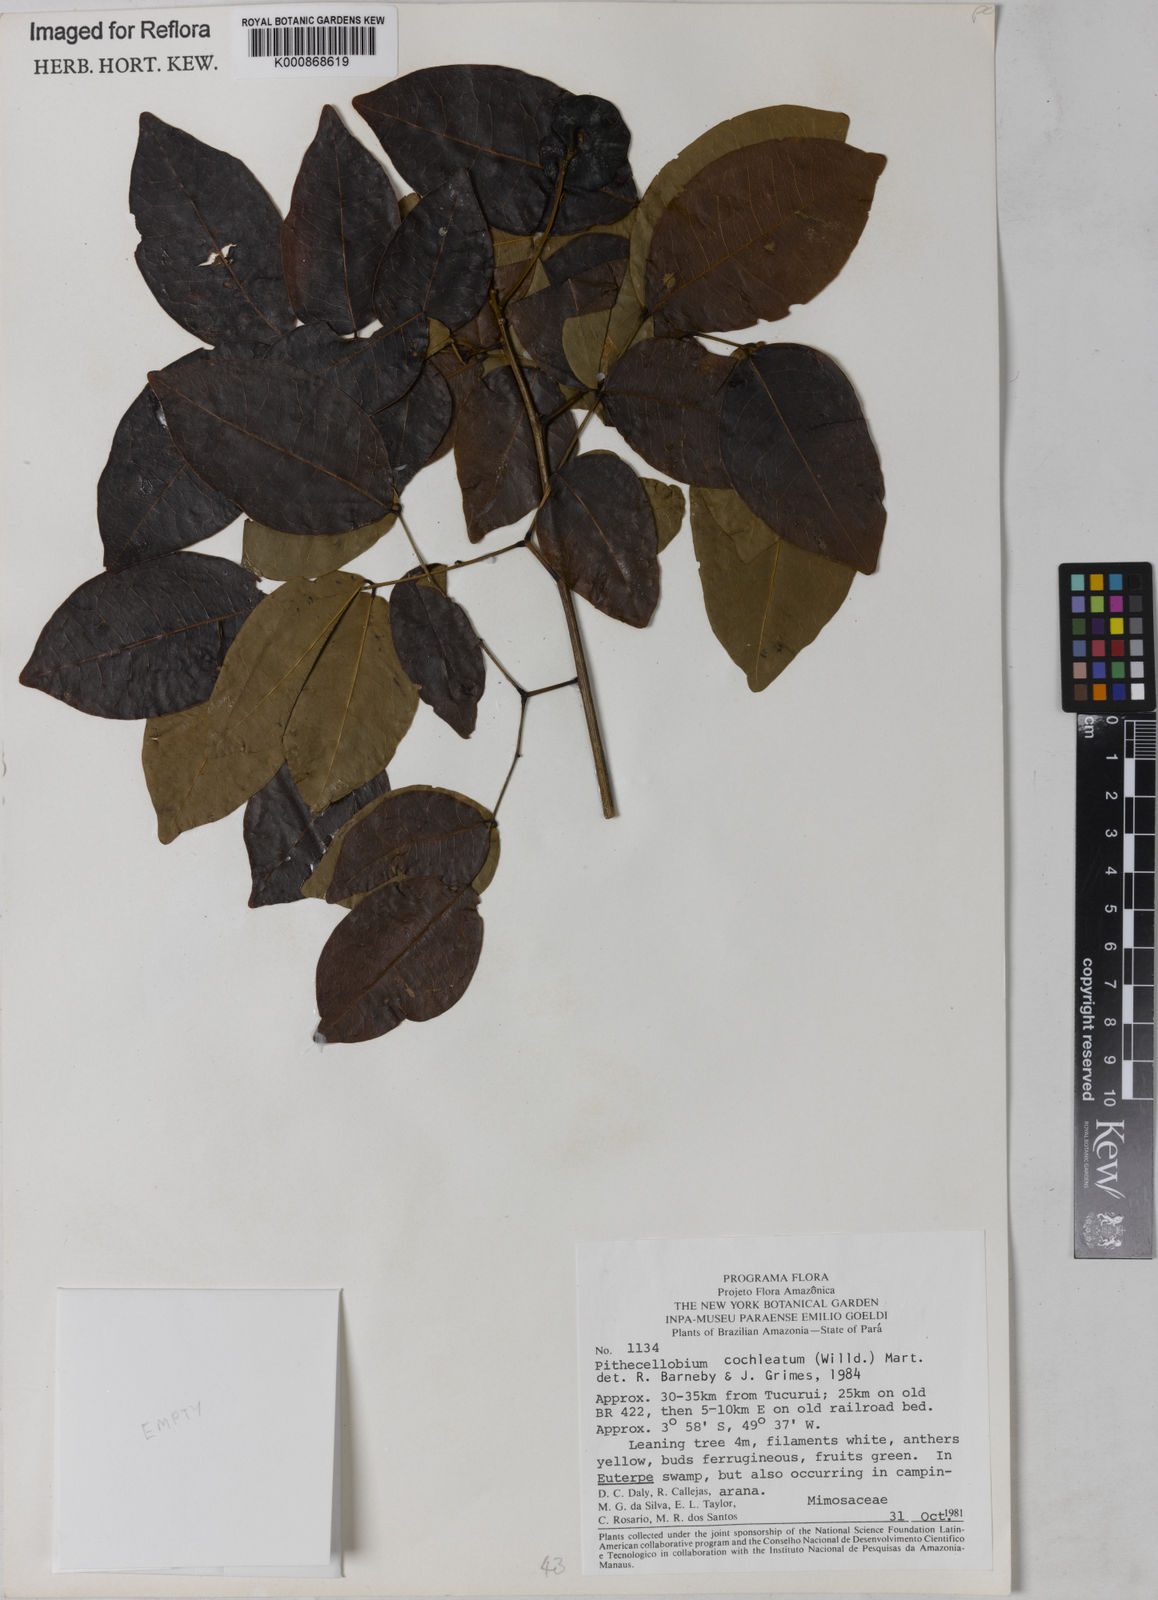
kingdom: Plantae
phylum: Tracheophyta
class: Magnoliopsida
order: Fabales
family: Fabaceae
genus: Jupunba
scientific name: Jupunba cochleata
